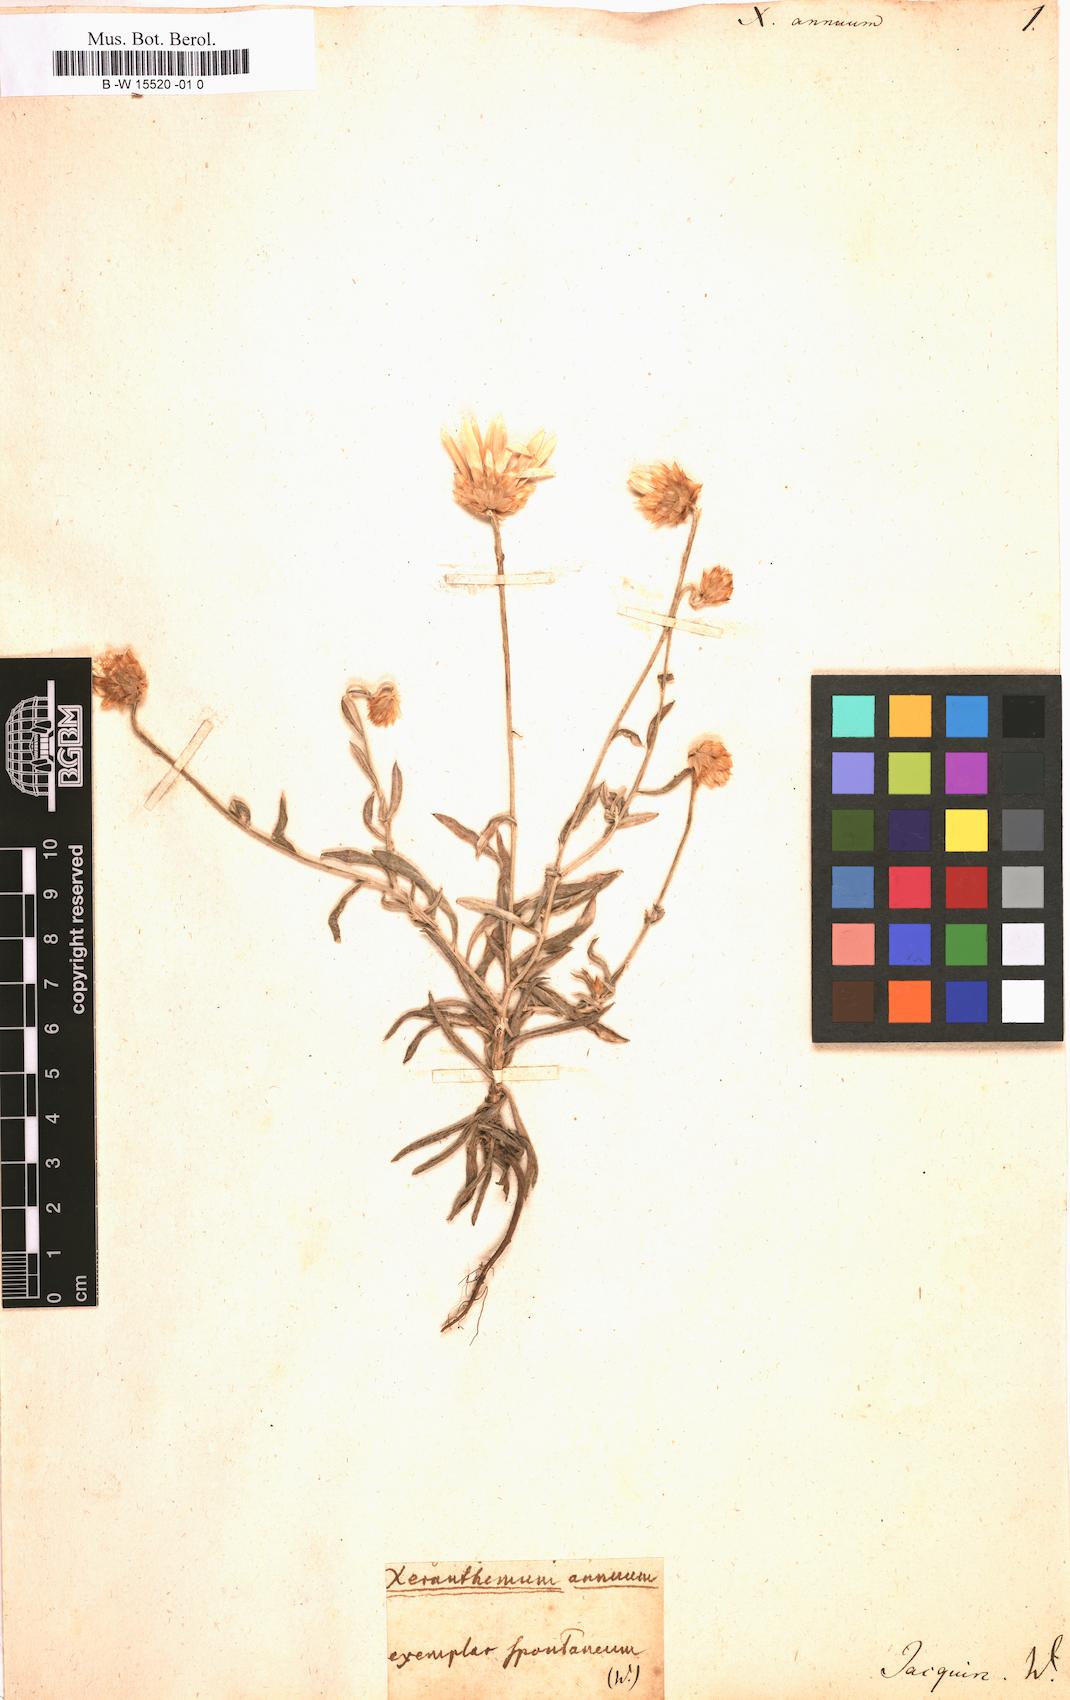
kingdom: Plantae
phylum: Tracheophyta
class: Magnoliopsida
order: Asterales
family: Asteraceae
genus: Xeranthemum
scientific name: Xeranthemum annuum
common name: Immortelle
